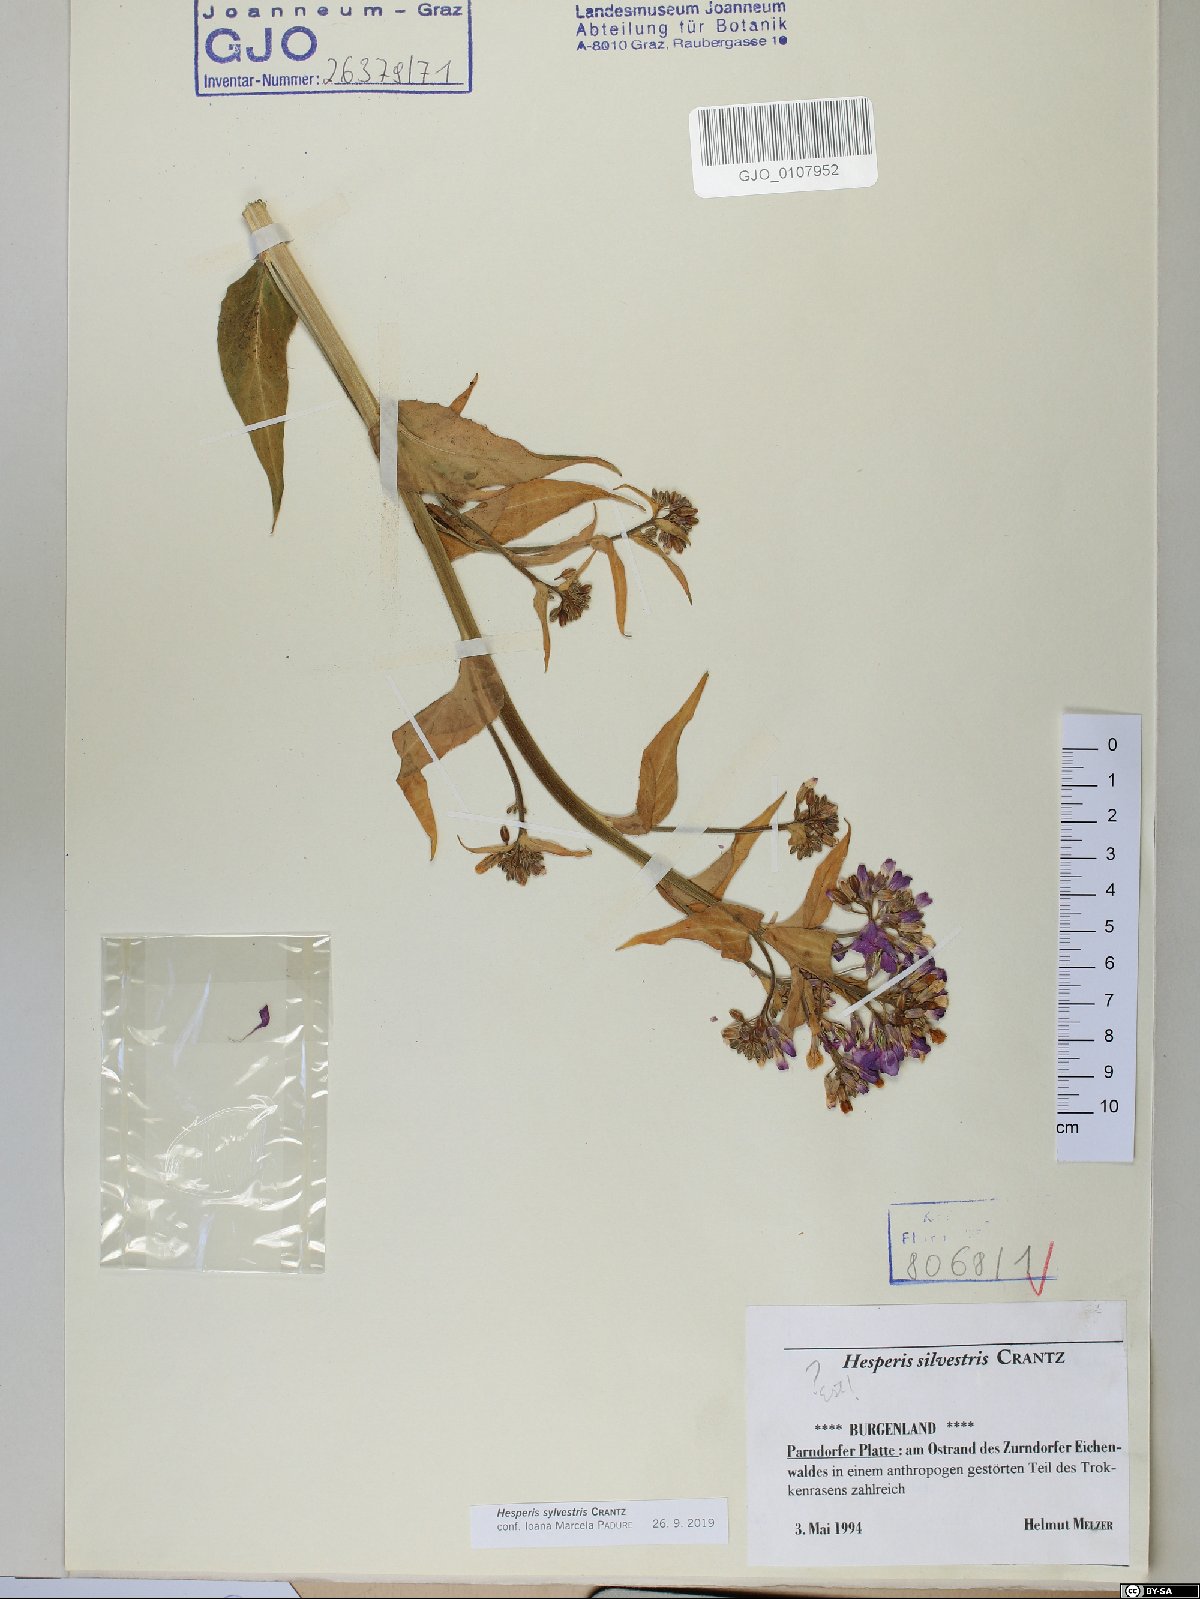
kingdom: Plantae
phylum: Tracheophyta
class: Magnoliopsida
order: Brassicales
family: Brassicaceae
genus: Hesperis
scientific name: Hesperis sylvestris
